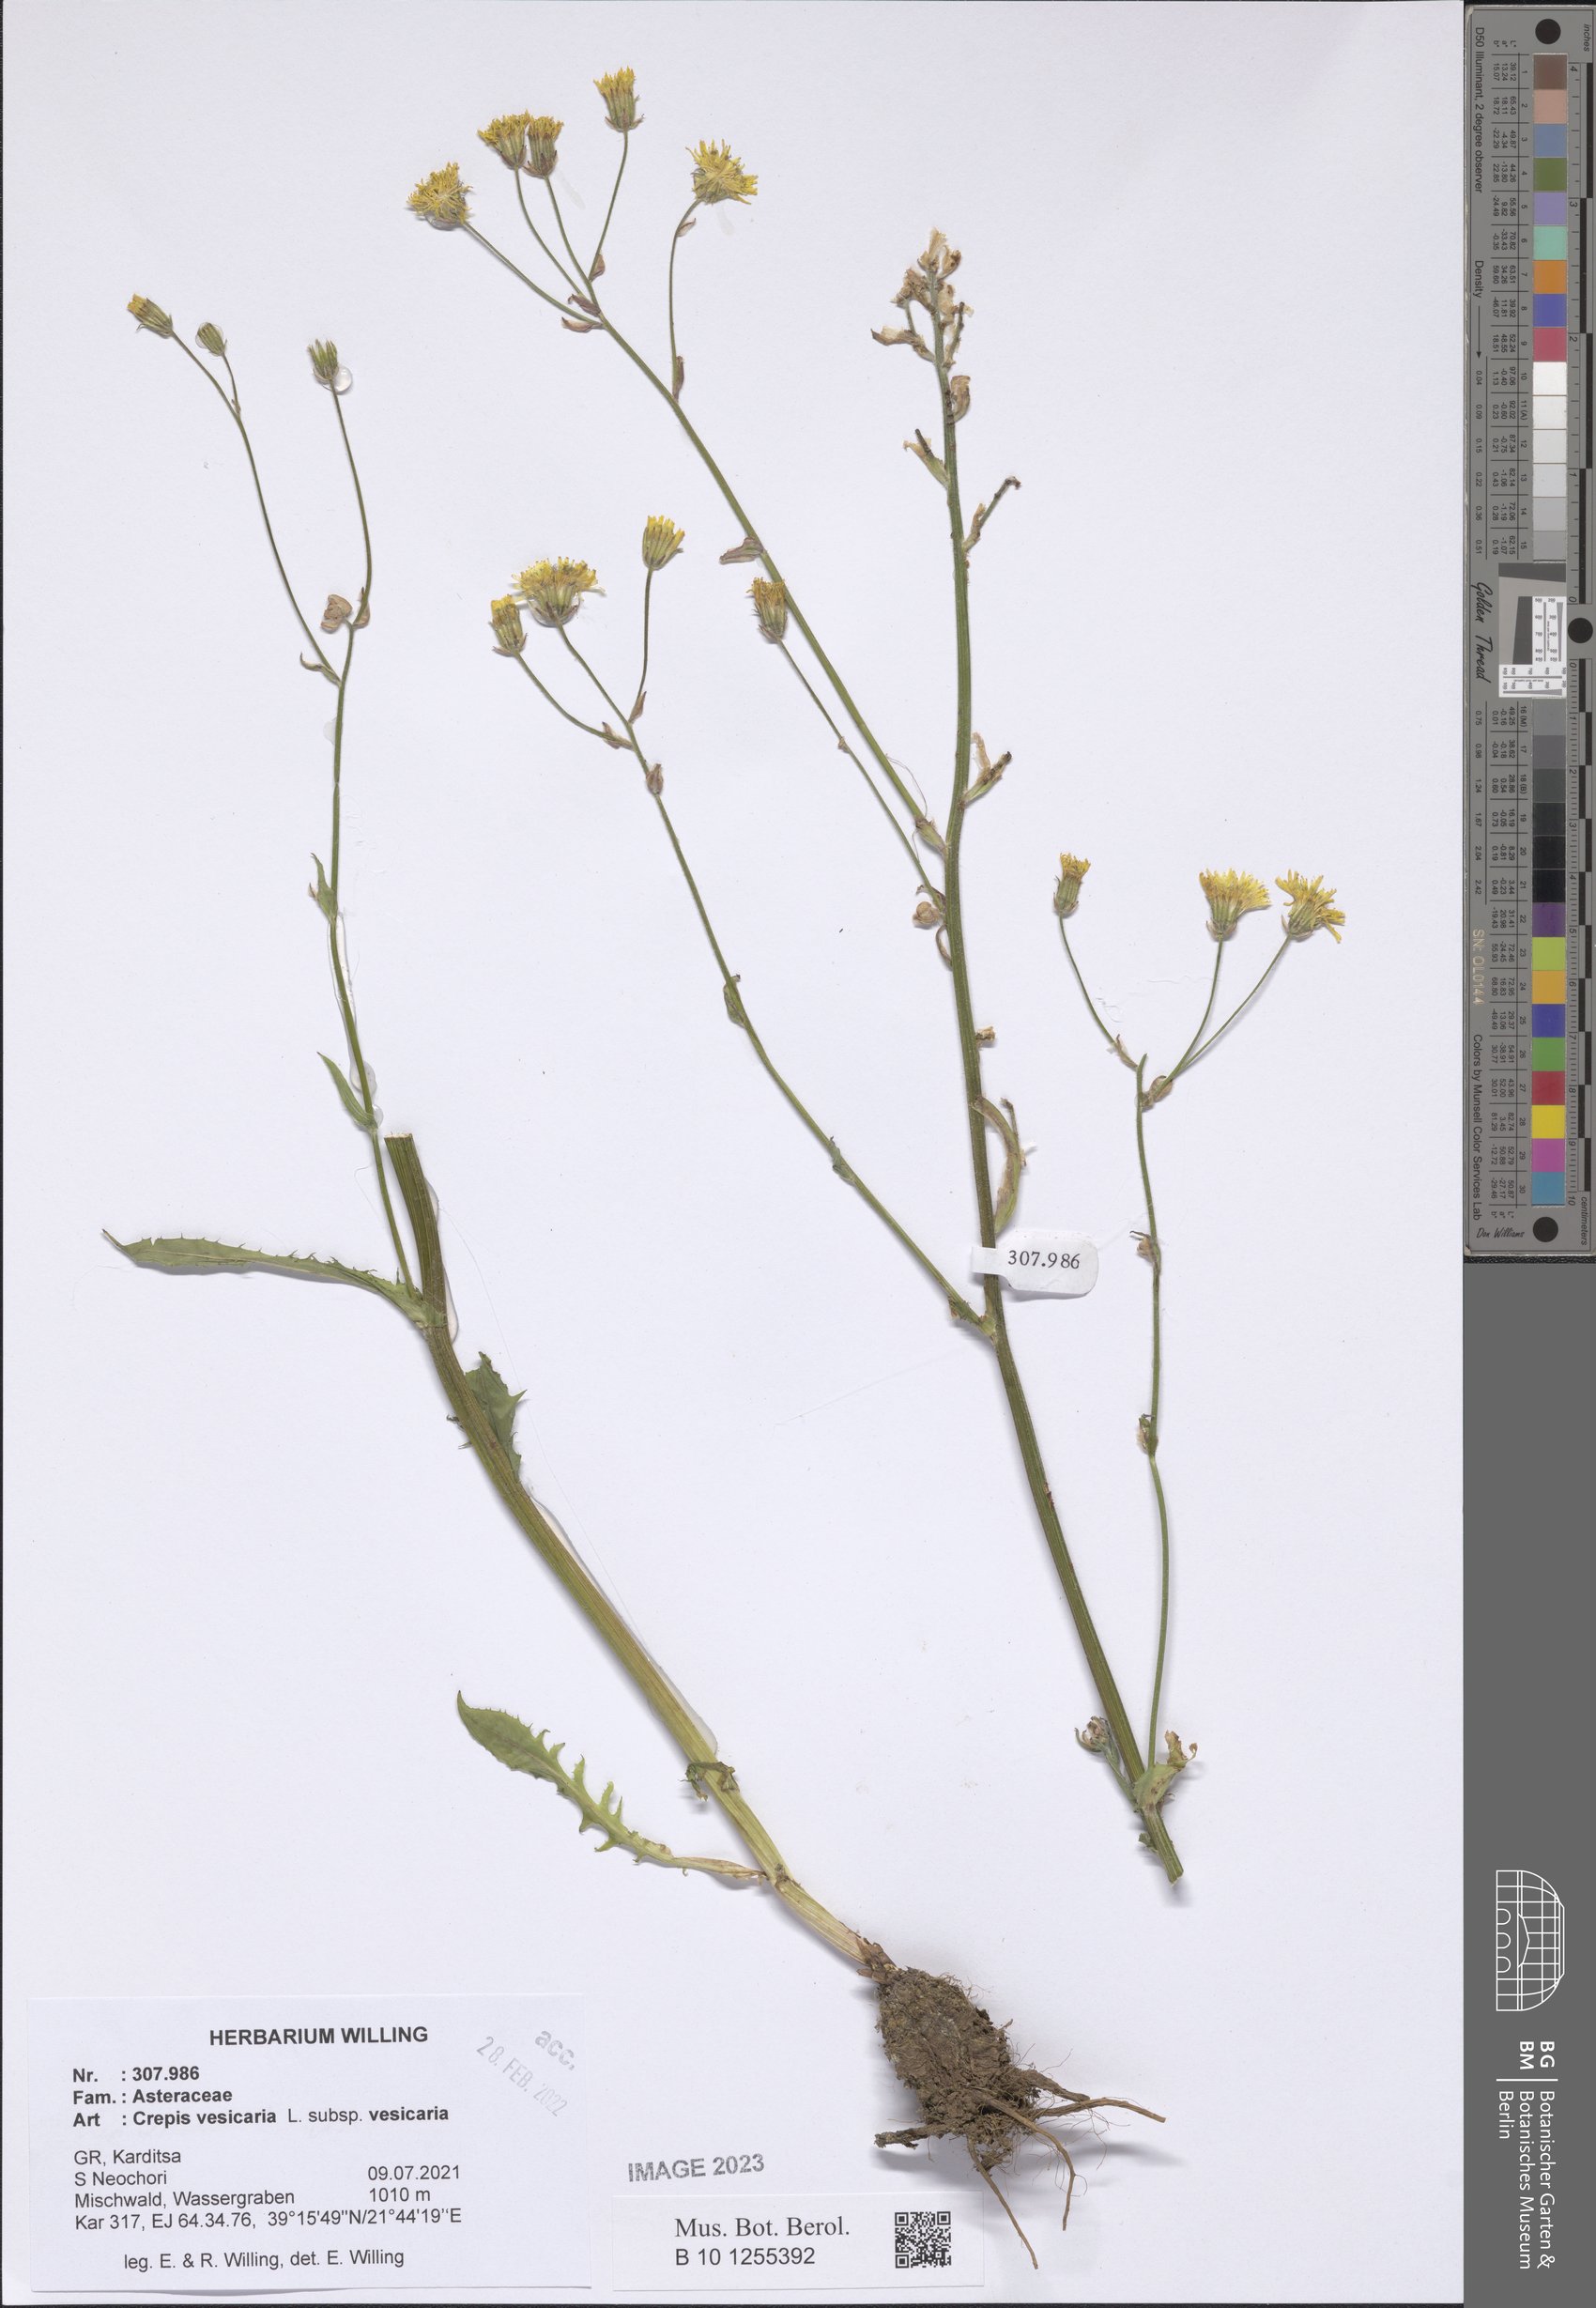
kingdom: Plantae
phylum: Tracheophyta
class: Magnoliopsida
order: Asterales
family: Asteraceae
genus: Crepis
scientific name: Crepis vesicaria
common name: Beaked hawksbeard
